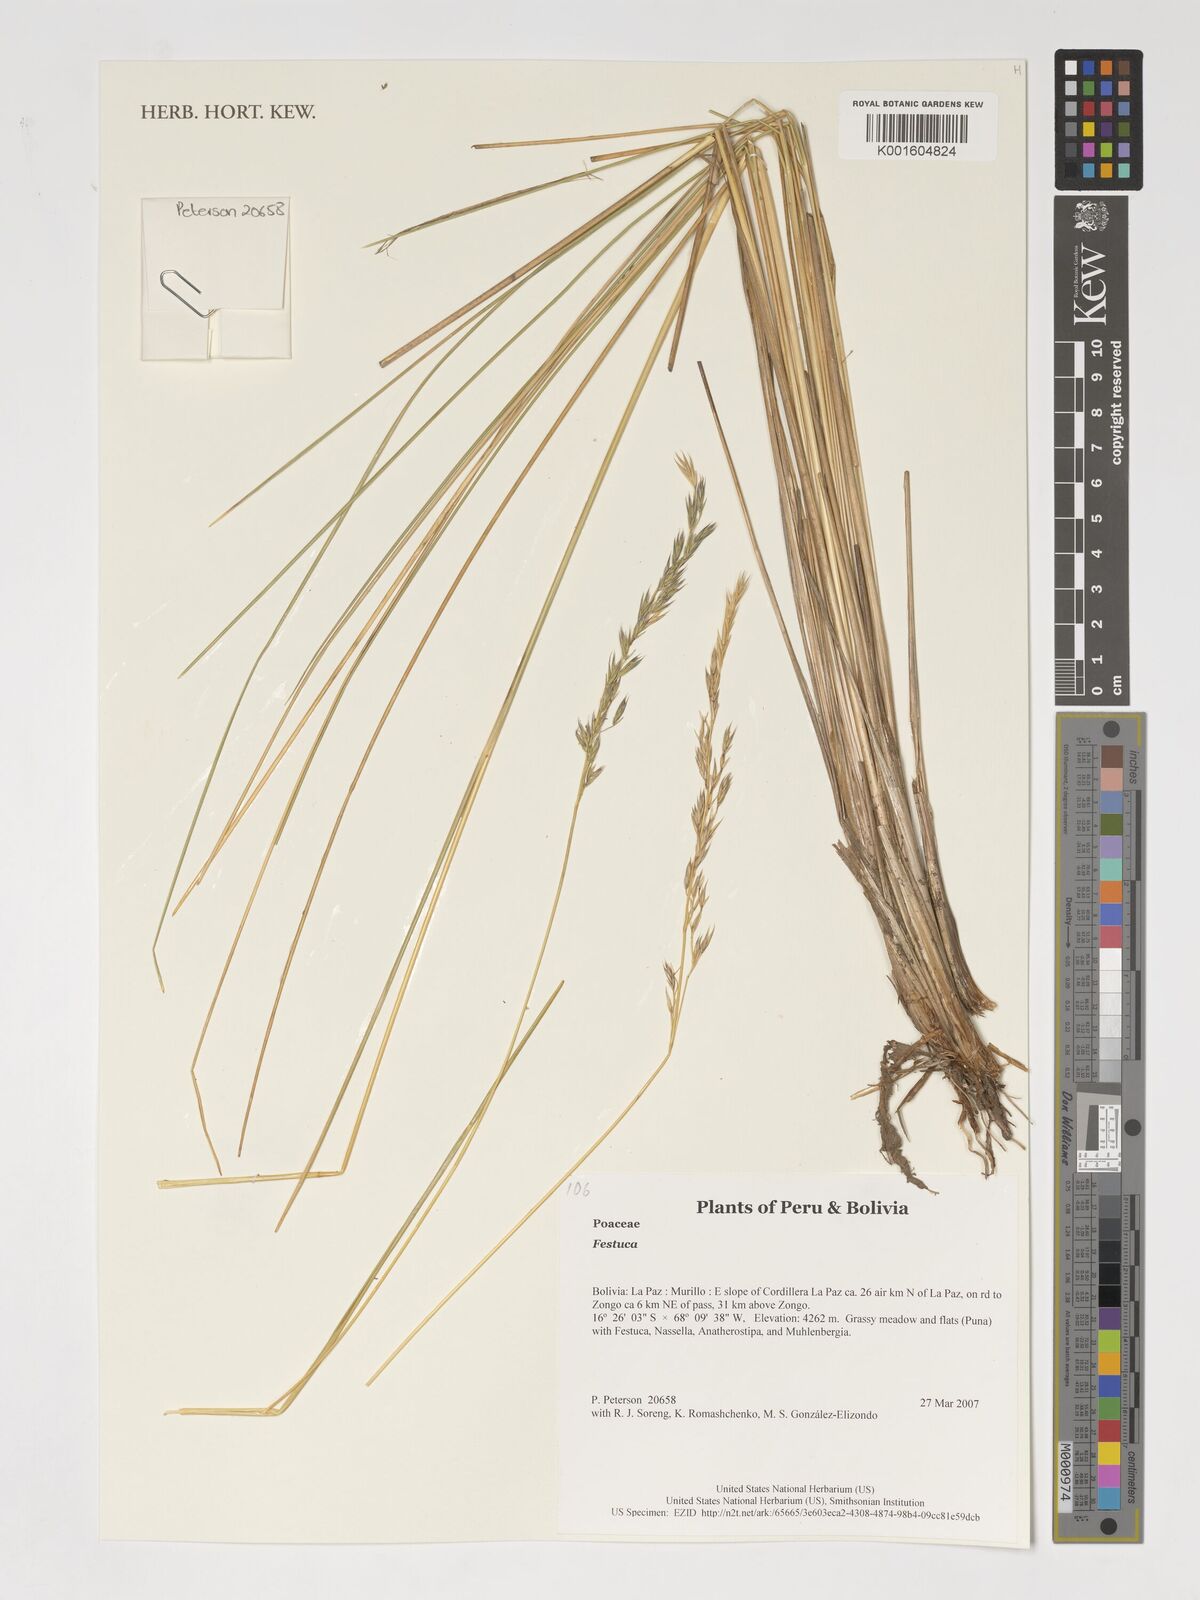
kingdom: Plantae
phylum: Tracheophyta
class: Liliopsida
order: Poales
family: Poaceae
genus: Festuca
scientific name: Festuca
